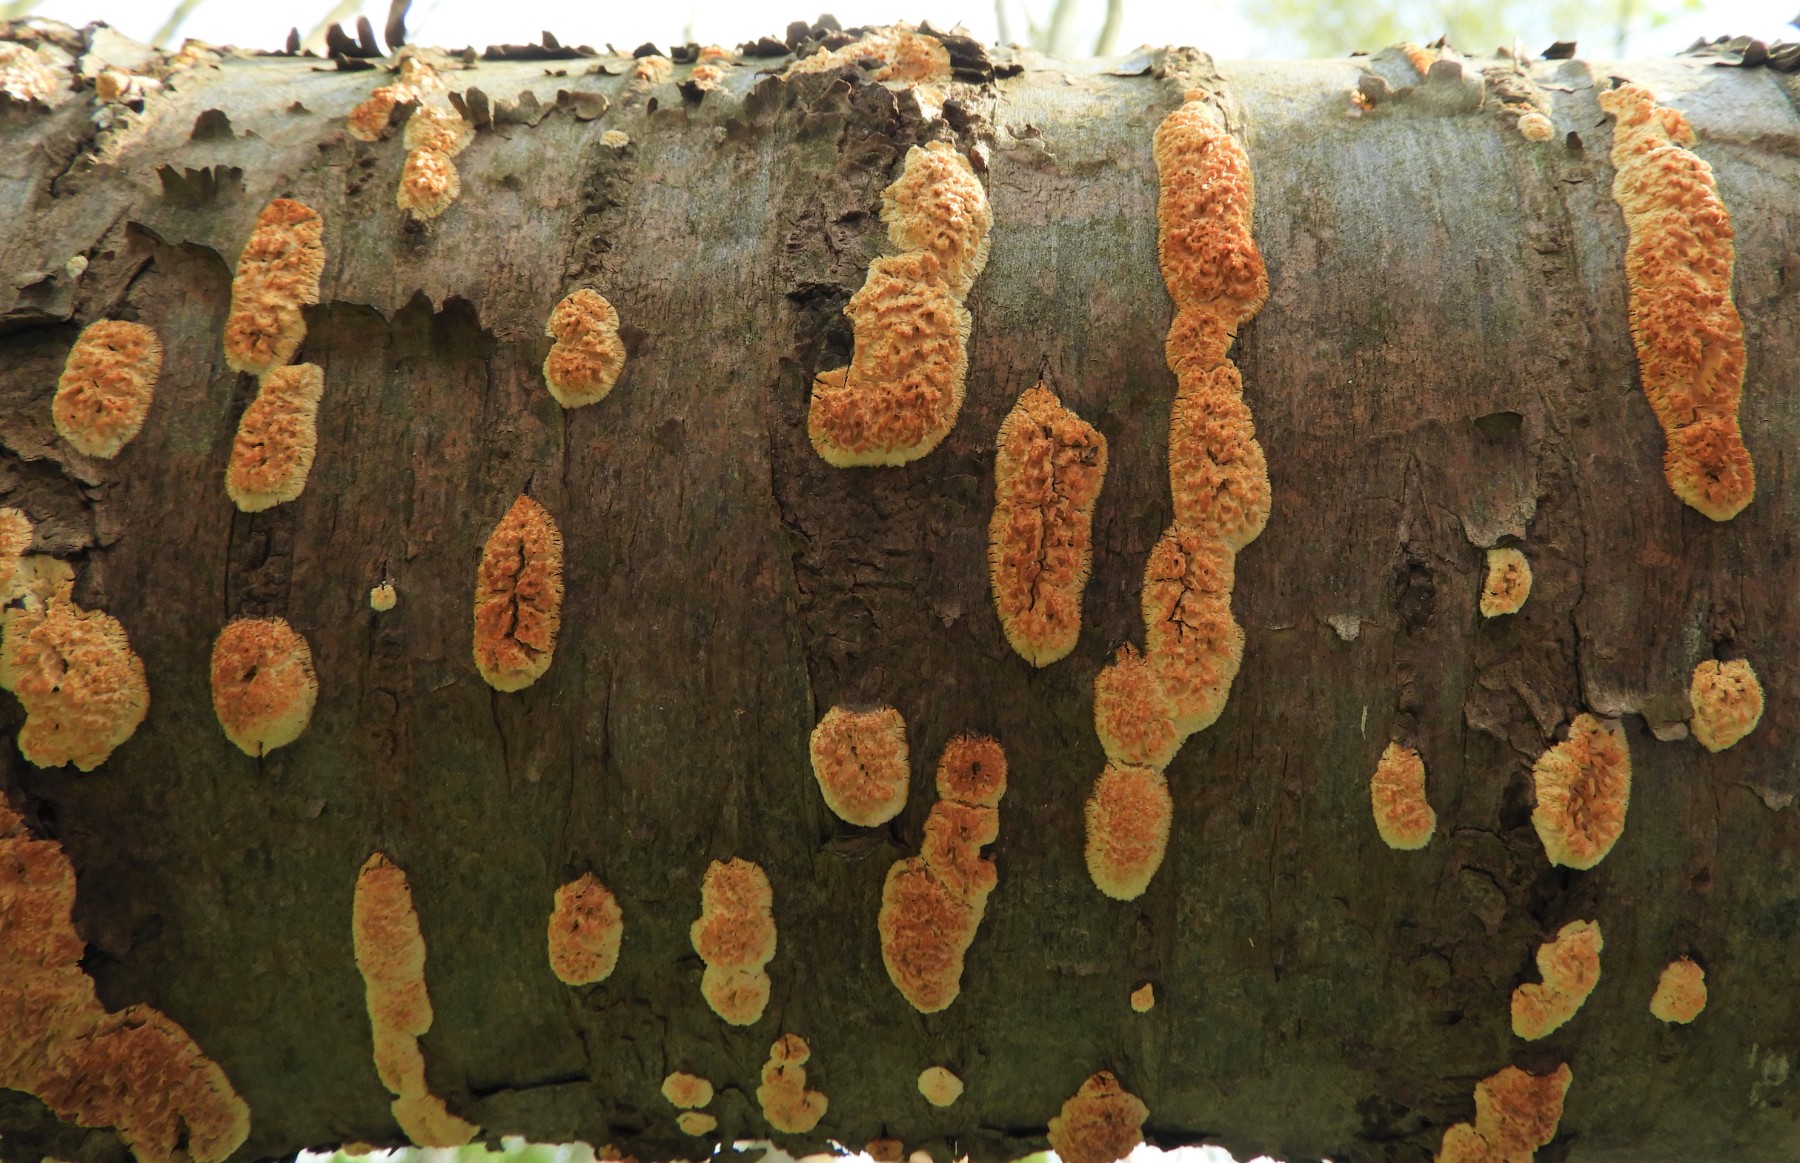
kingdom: Fungi
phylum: Basidiomycota
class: Agaricomycetes
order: Hymenochaetales
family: Schizoporaceae
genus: Xylodon
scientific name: Xylodon radula
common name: grovtandet kalkskind
